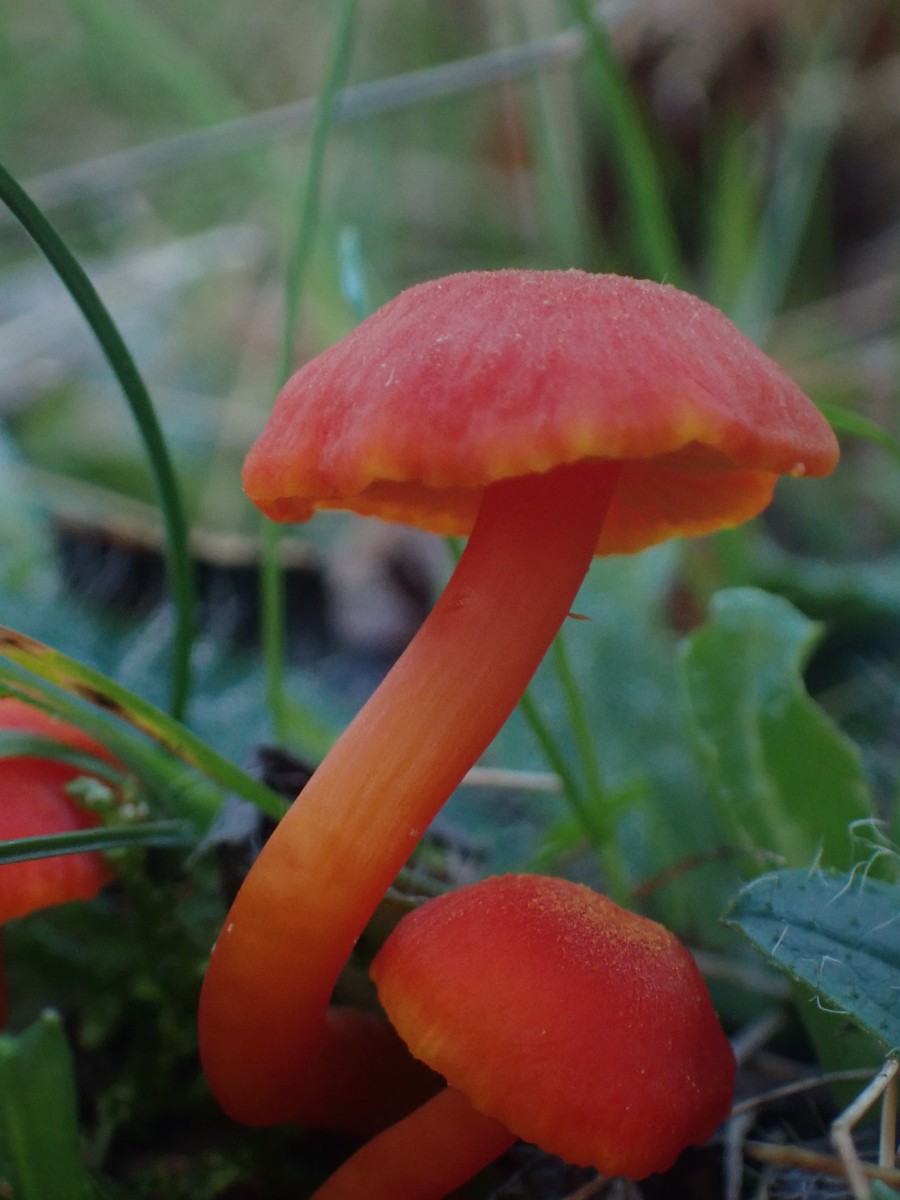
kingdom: Fungi
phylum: Basidiomycota
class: Agaricomycetes
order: Agaricales
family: Hygrophoraceae
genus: Hygrocybe
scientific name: Hygrocybe miniata
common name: mønje-vokshat
